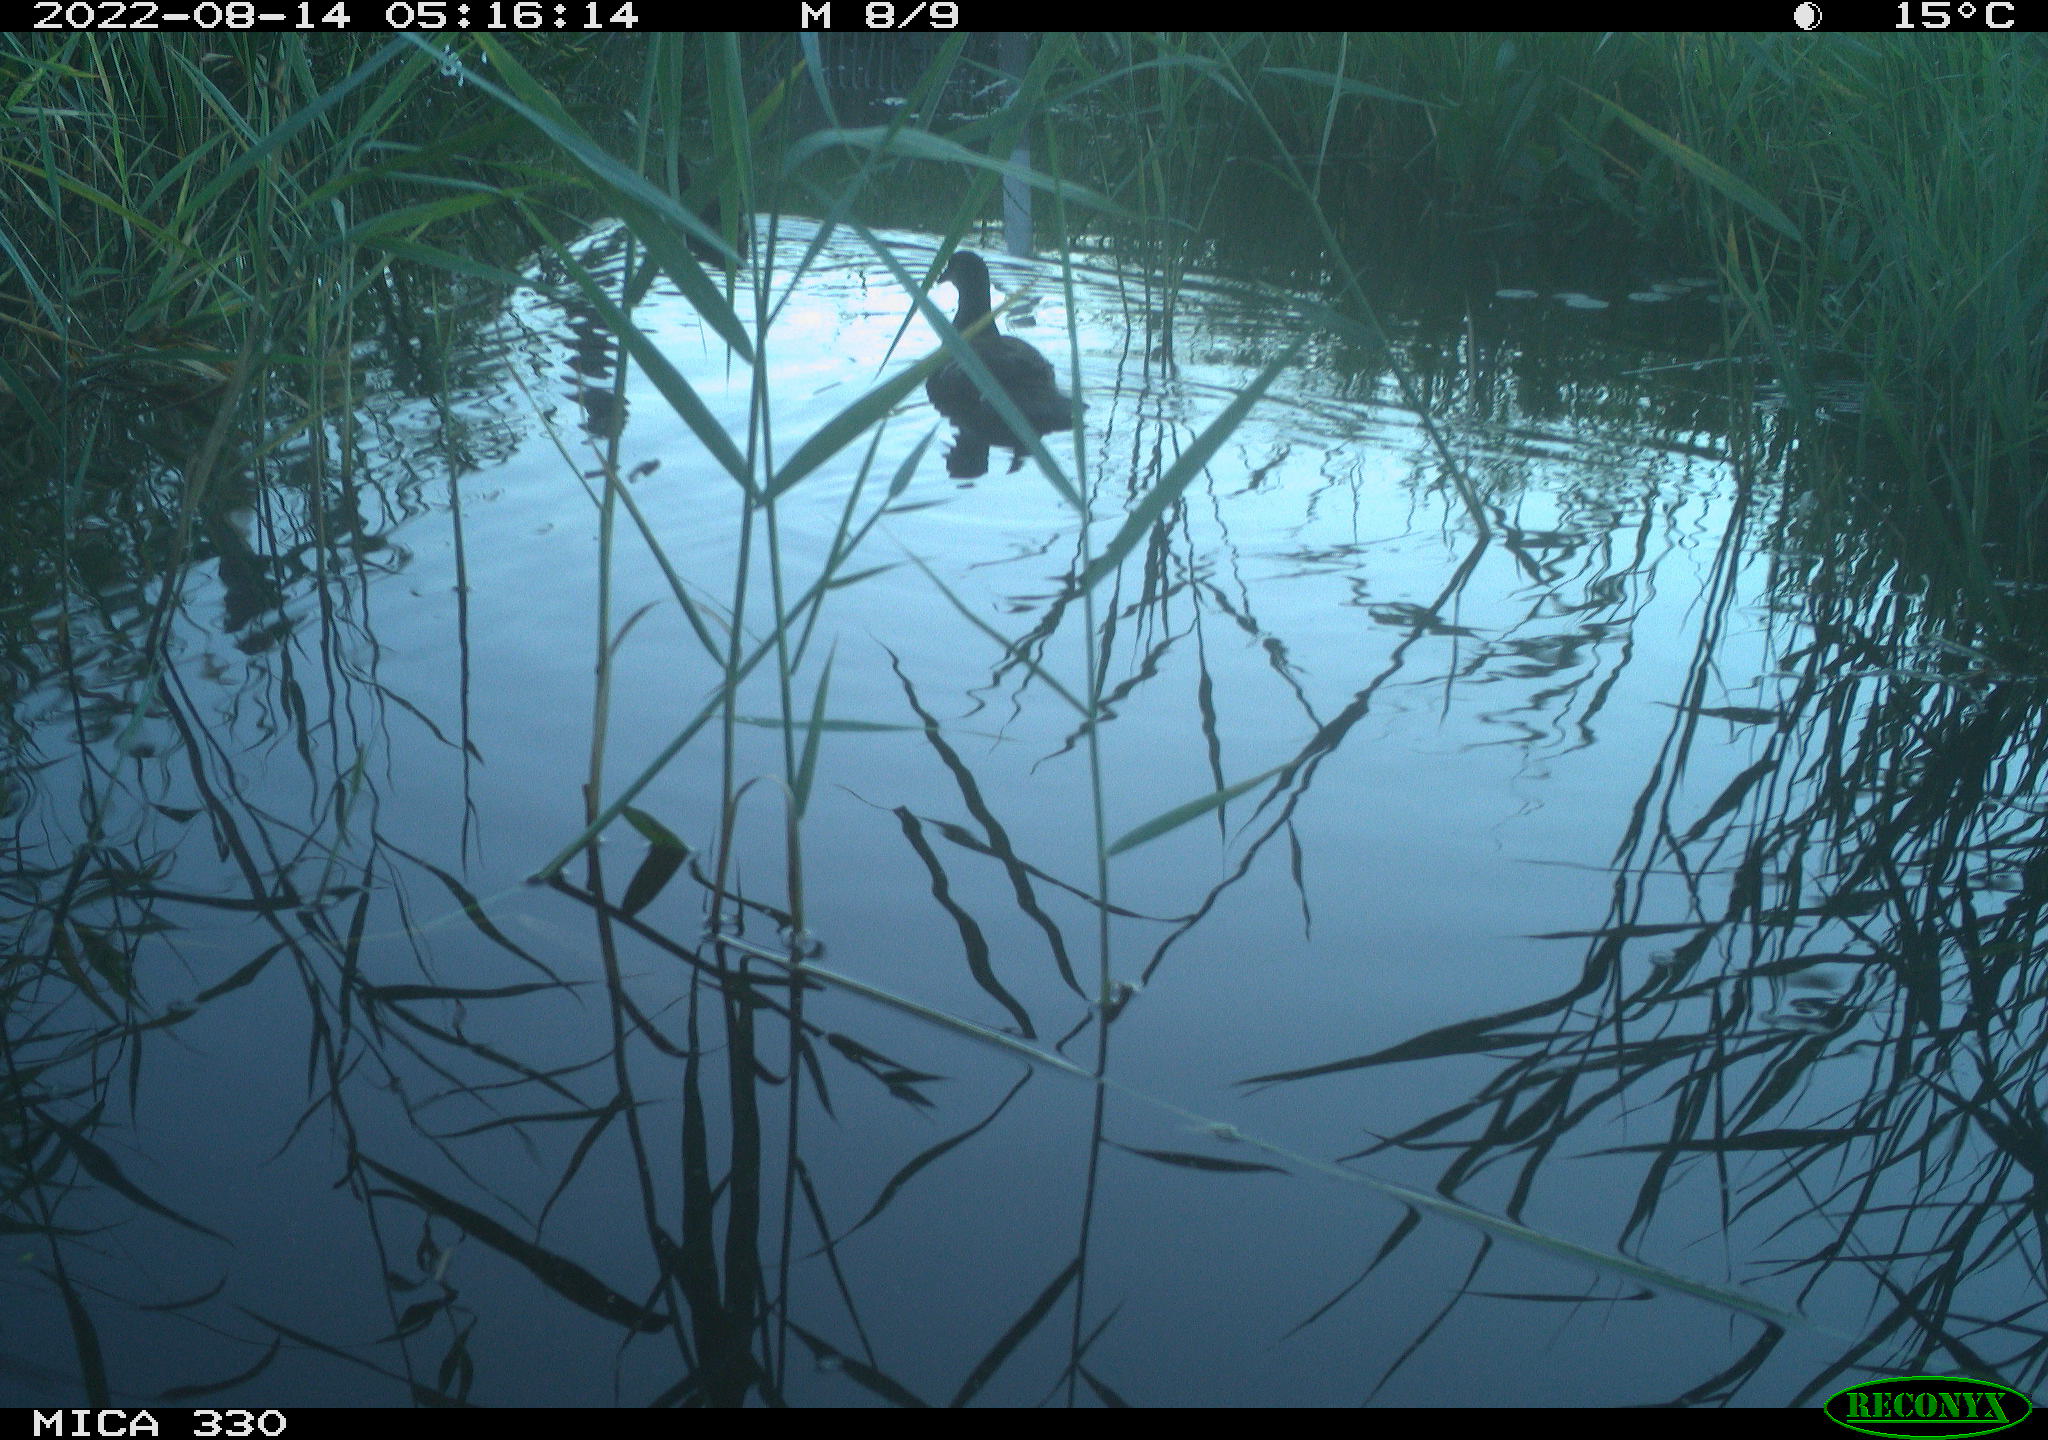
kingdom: Animalia
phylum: Chordata
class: Aves
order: Gruiformes
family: Rallidae
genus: Gallinula
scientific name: Gallinula chloropus
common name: Common moorhen
